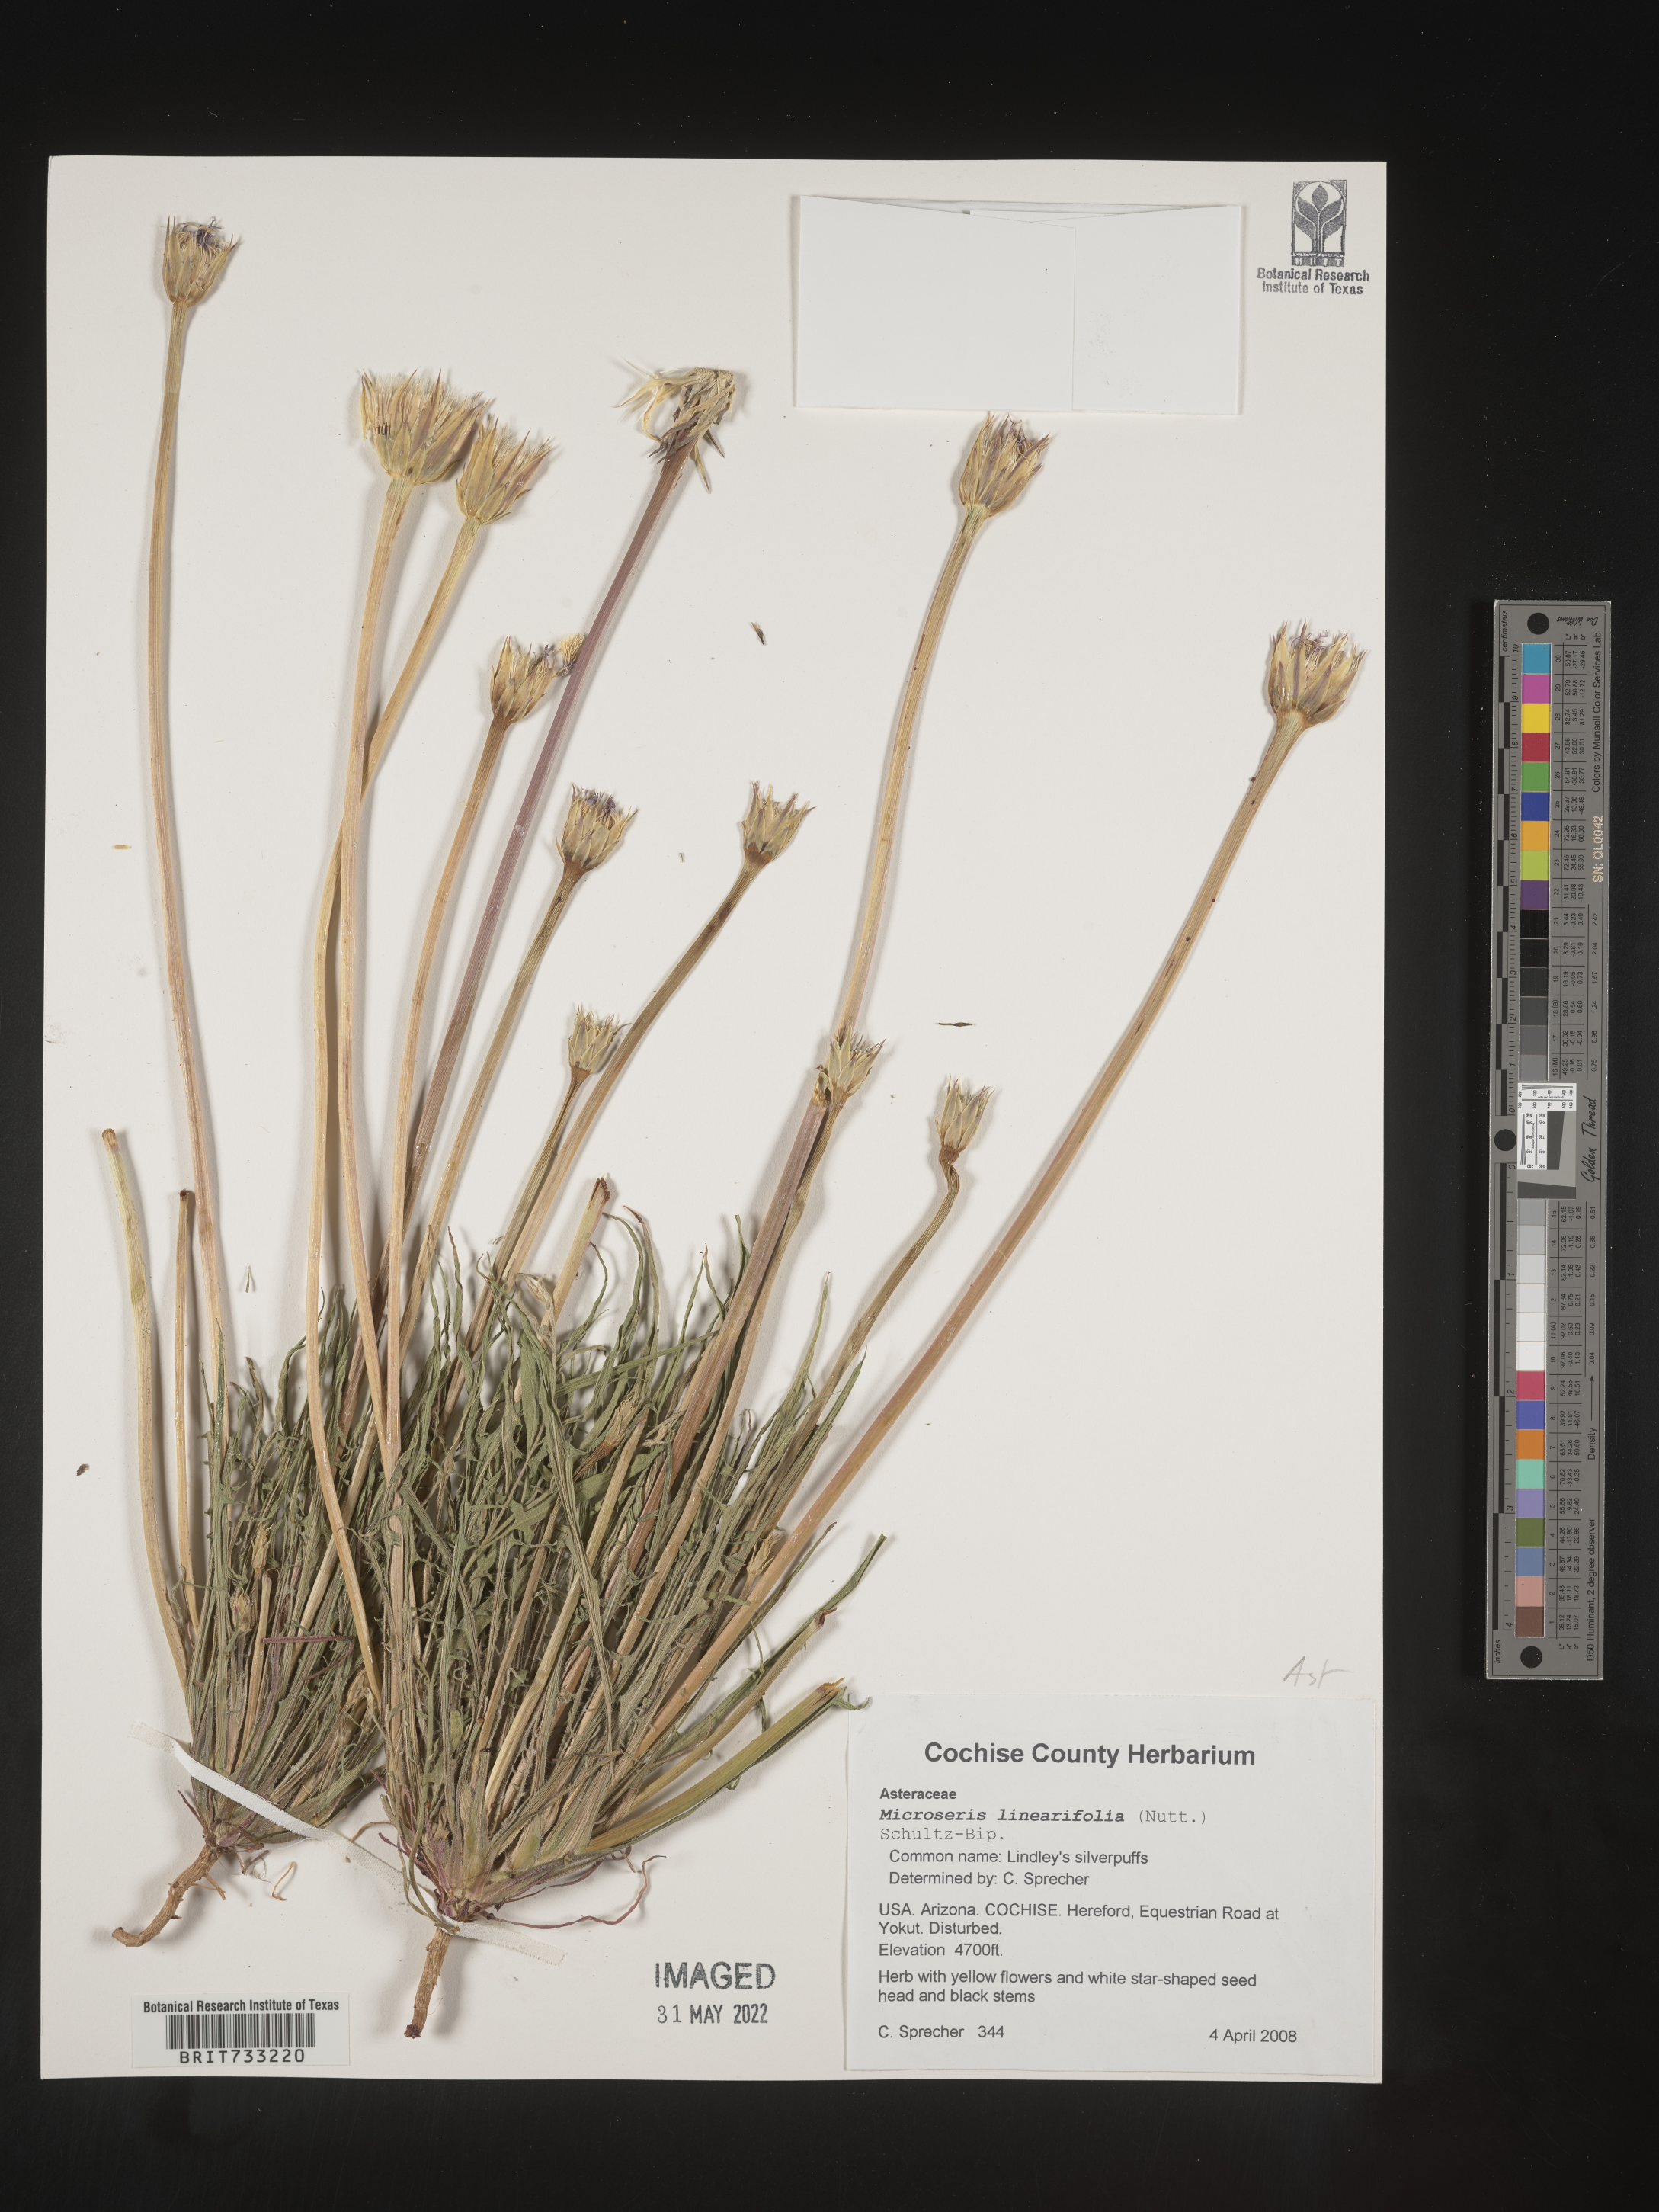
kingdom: Plantae
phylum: Tracheophyta
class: Magnoliopsida
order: Asterales
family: Asteraceae
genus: Microseris
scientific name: Microseris
